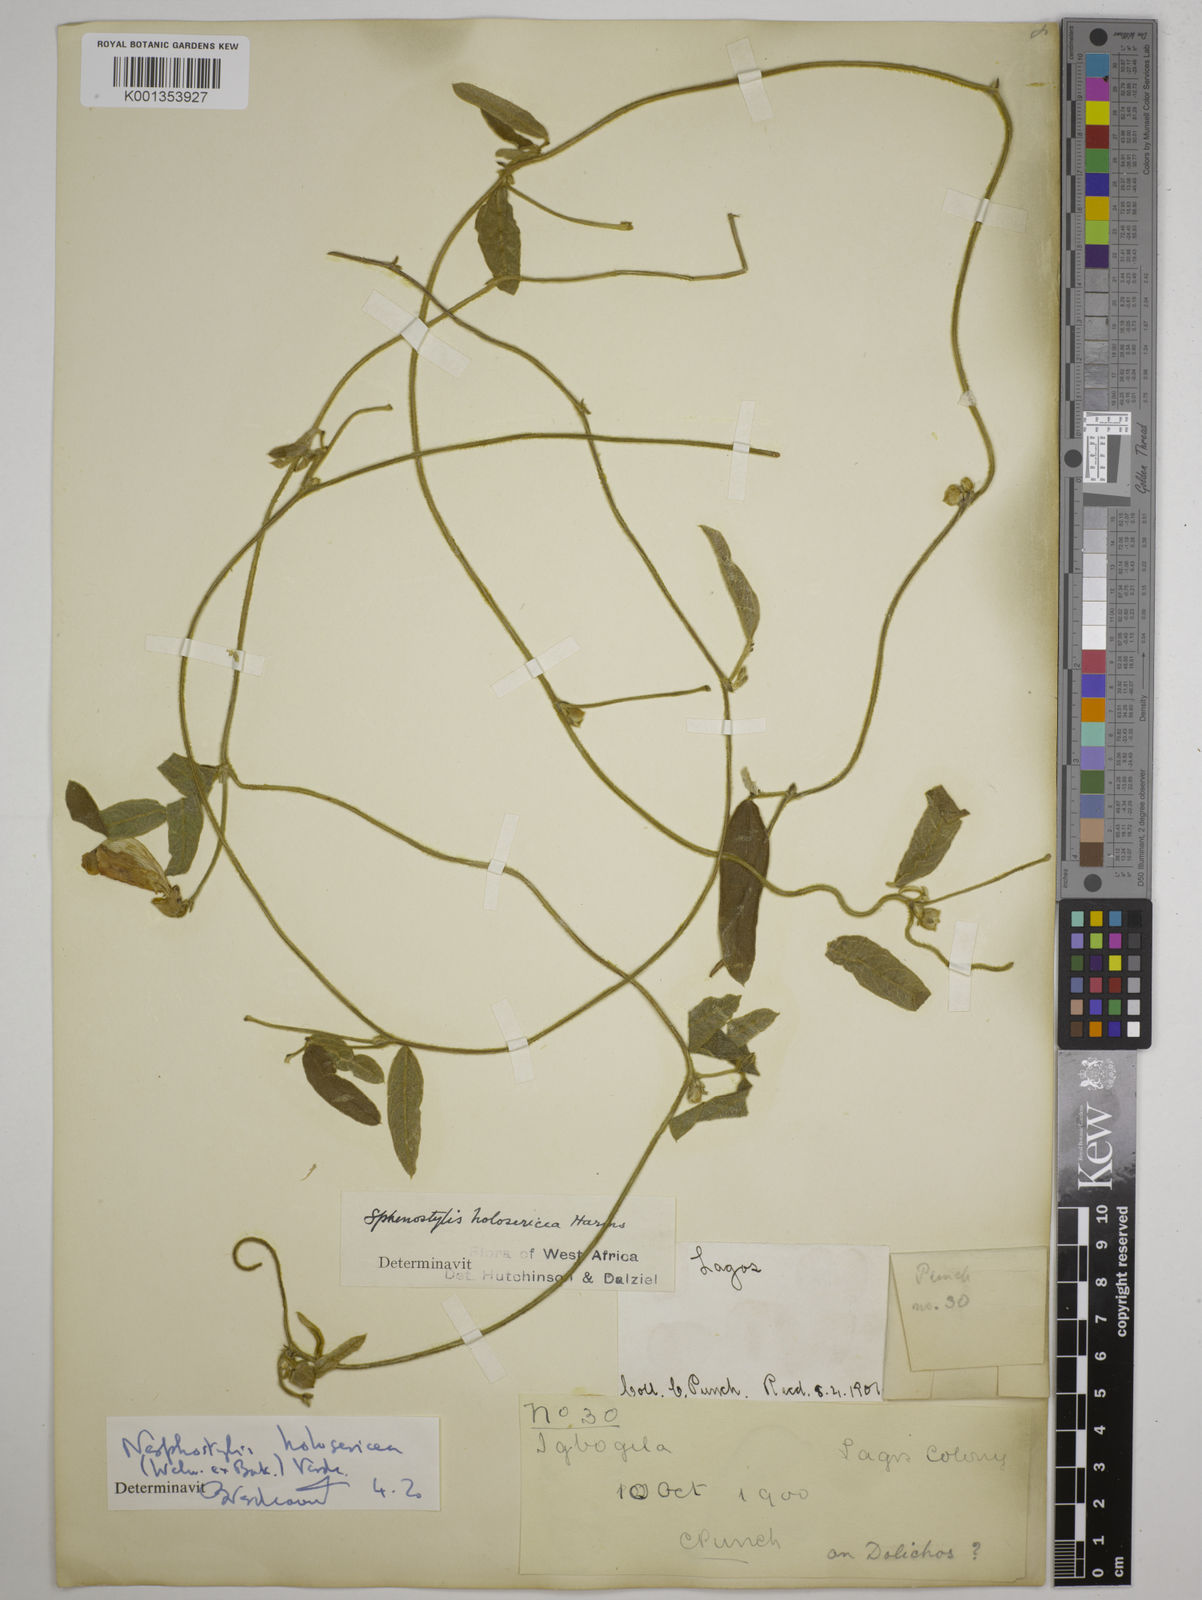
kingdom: Plantae
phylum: Tracheophyta
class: Magnoliopsida
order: Fabales
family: Fabaceae
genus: Nesphostylis
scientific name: Nesphostylis holosericea
